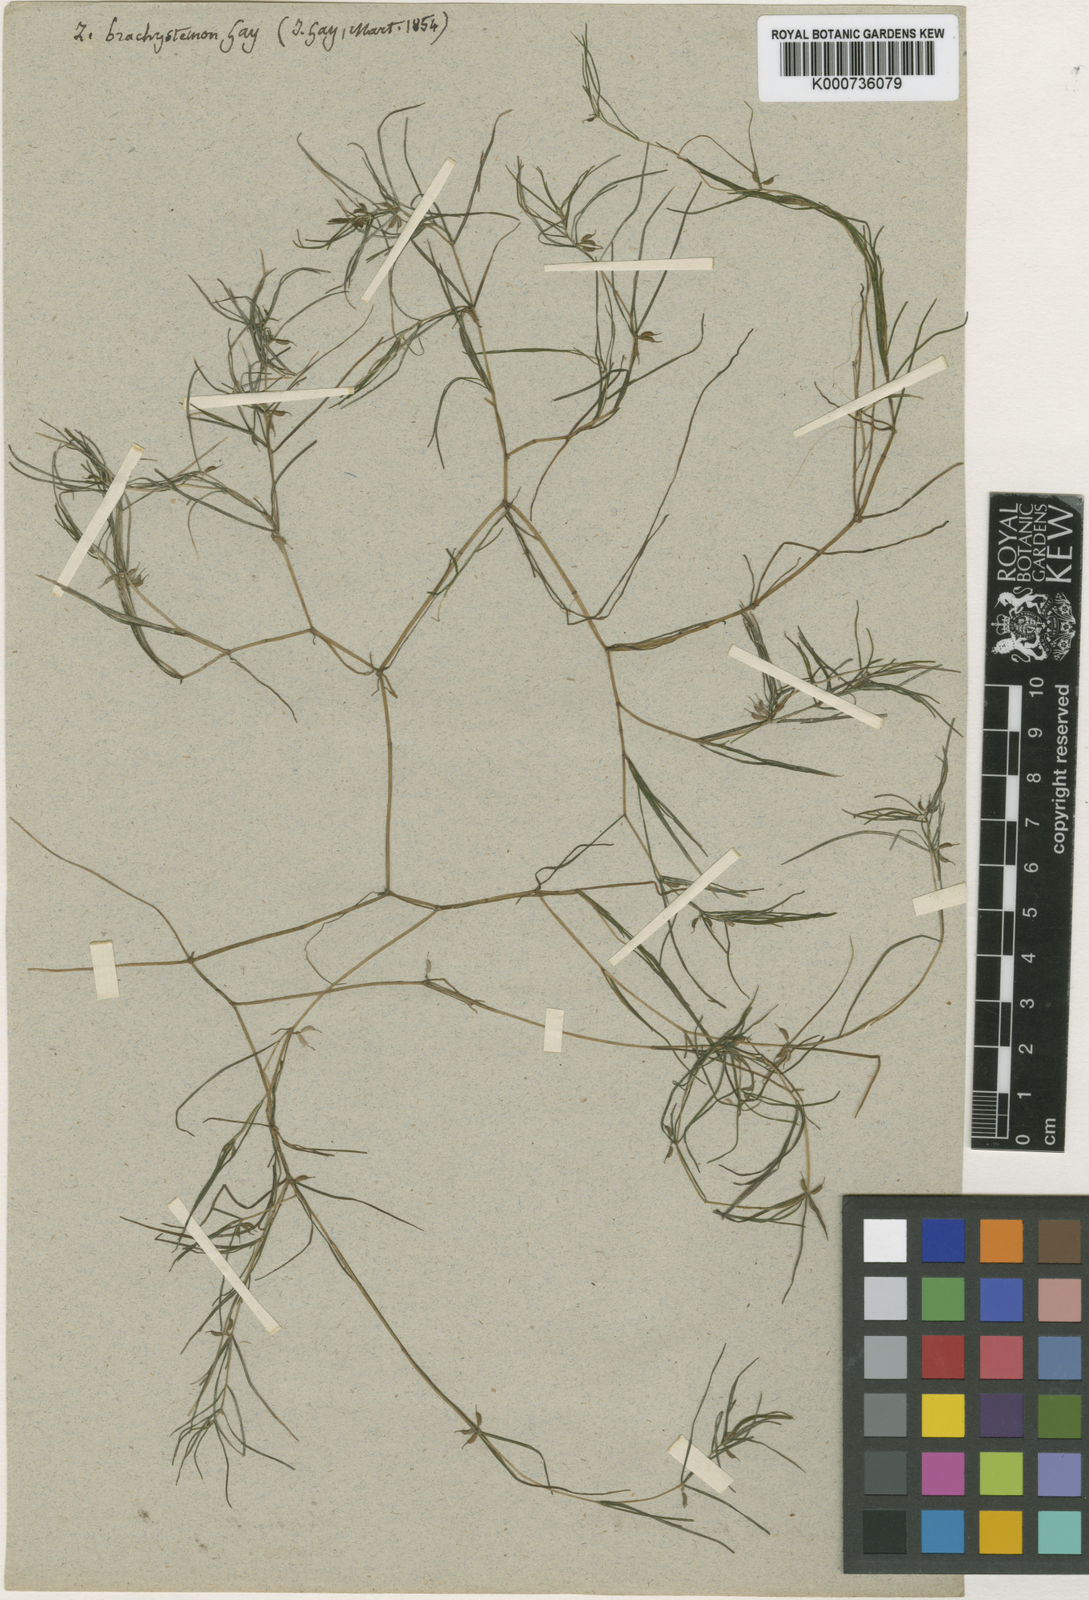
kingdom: Plantae
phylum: Tracheophyta
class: Liliopsida
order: Alismatales
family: Potamogetonaceae
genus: Zannichellia
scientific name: Zannichellia palustris
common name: Horned pondweed
